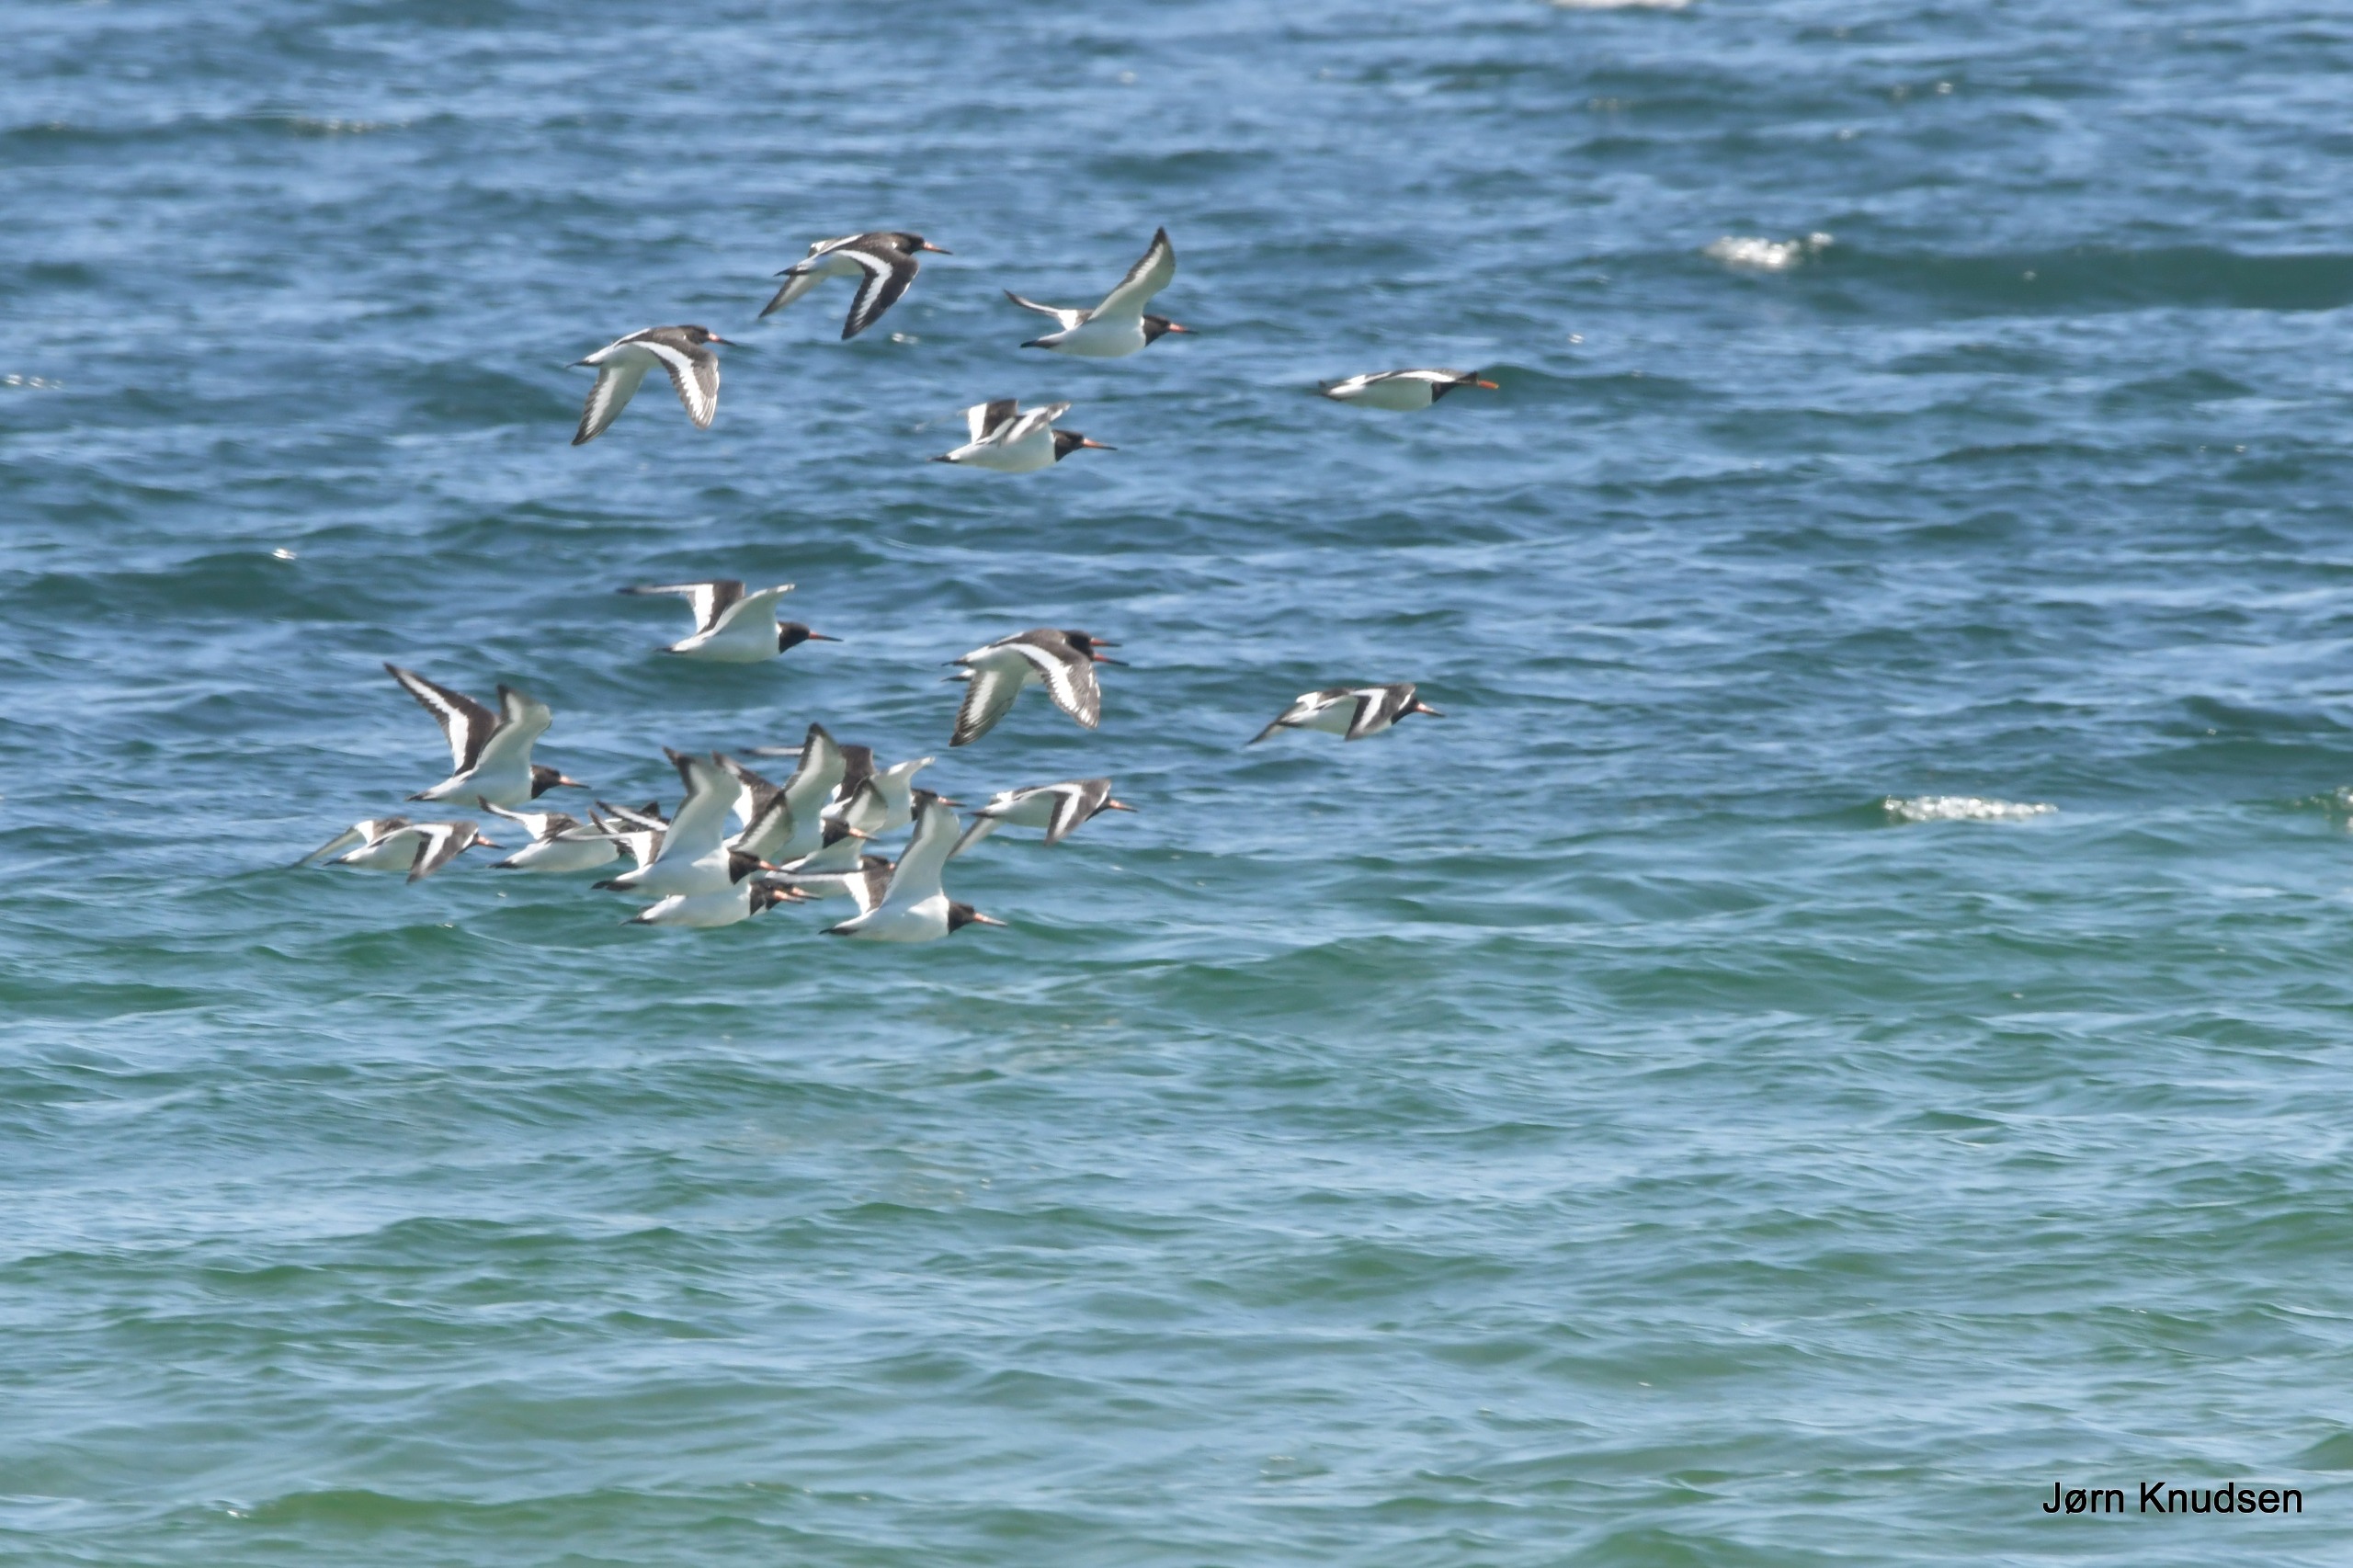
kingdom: Animalia
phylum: Chordata
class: Aves
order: Charadriiformes
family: Haematopodidae
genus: Haematopus
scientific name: Haematopus ostralegus
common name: Strandskade
